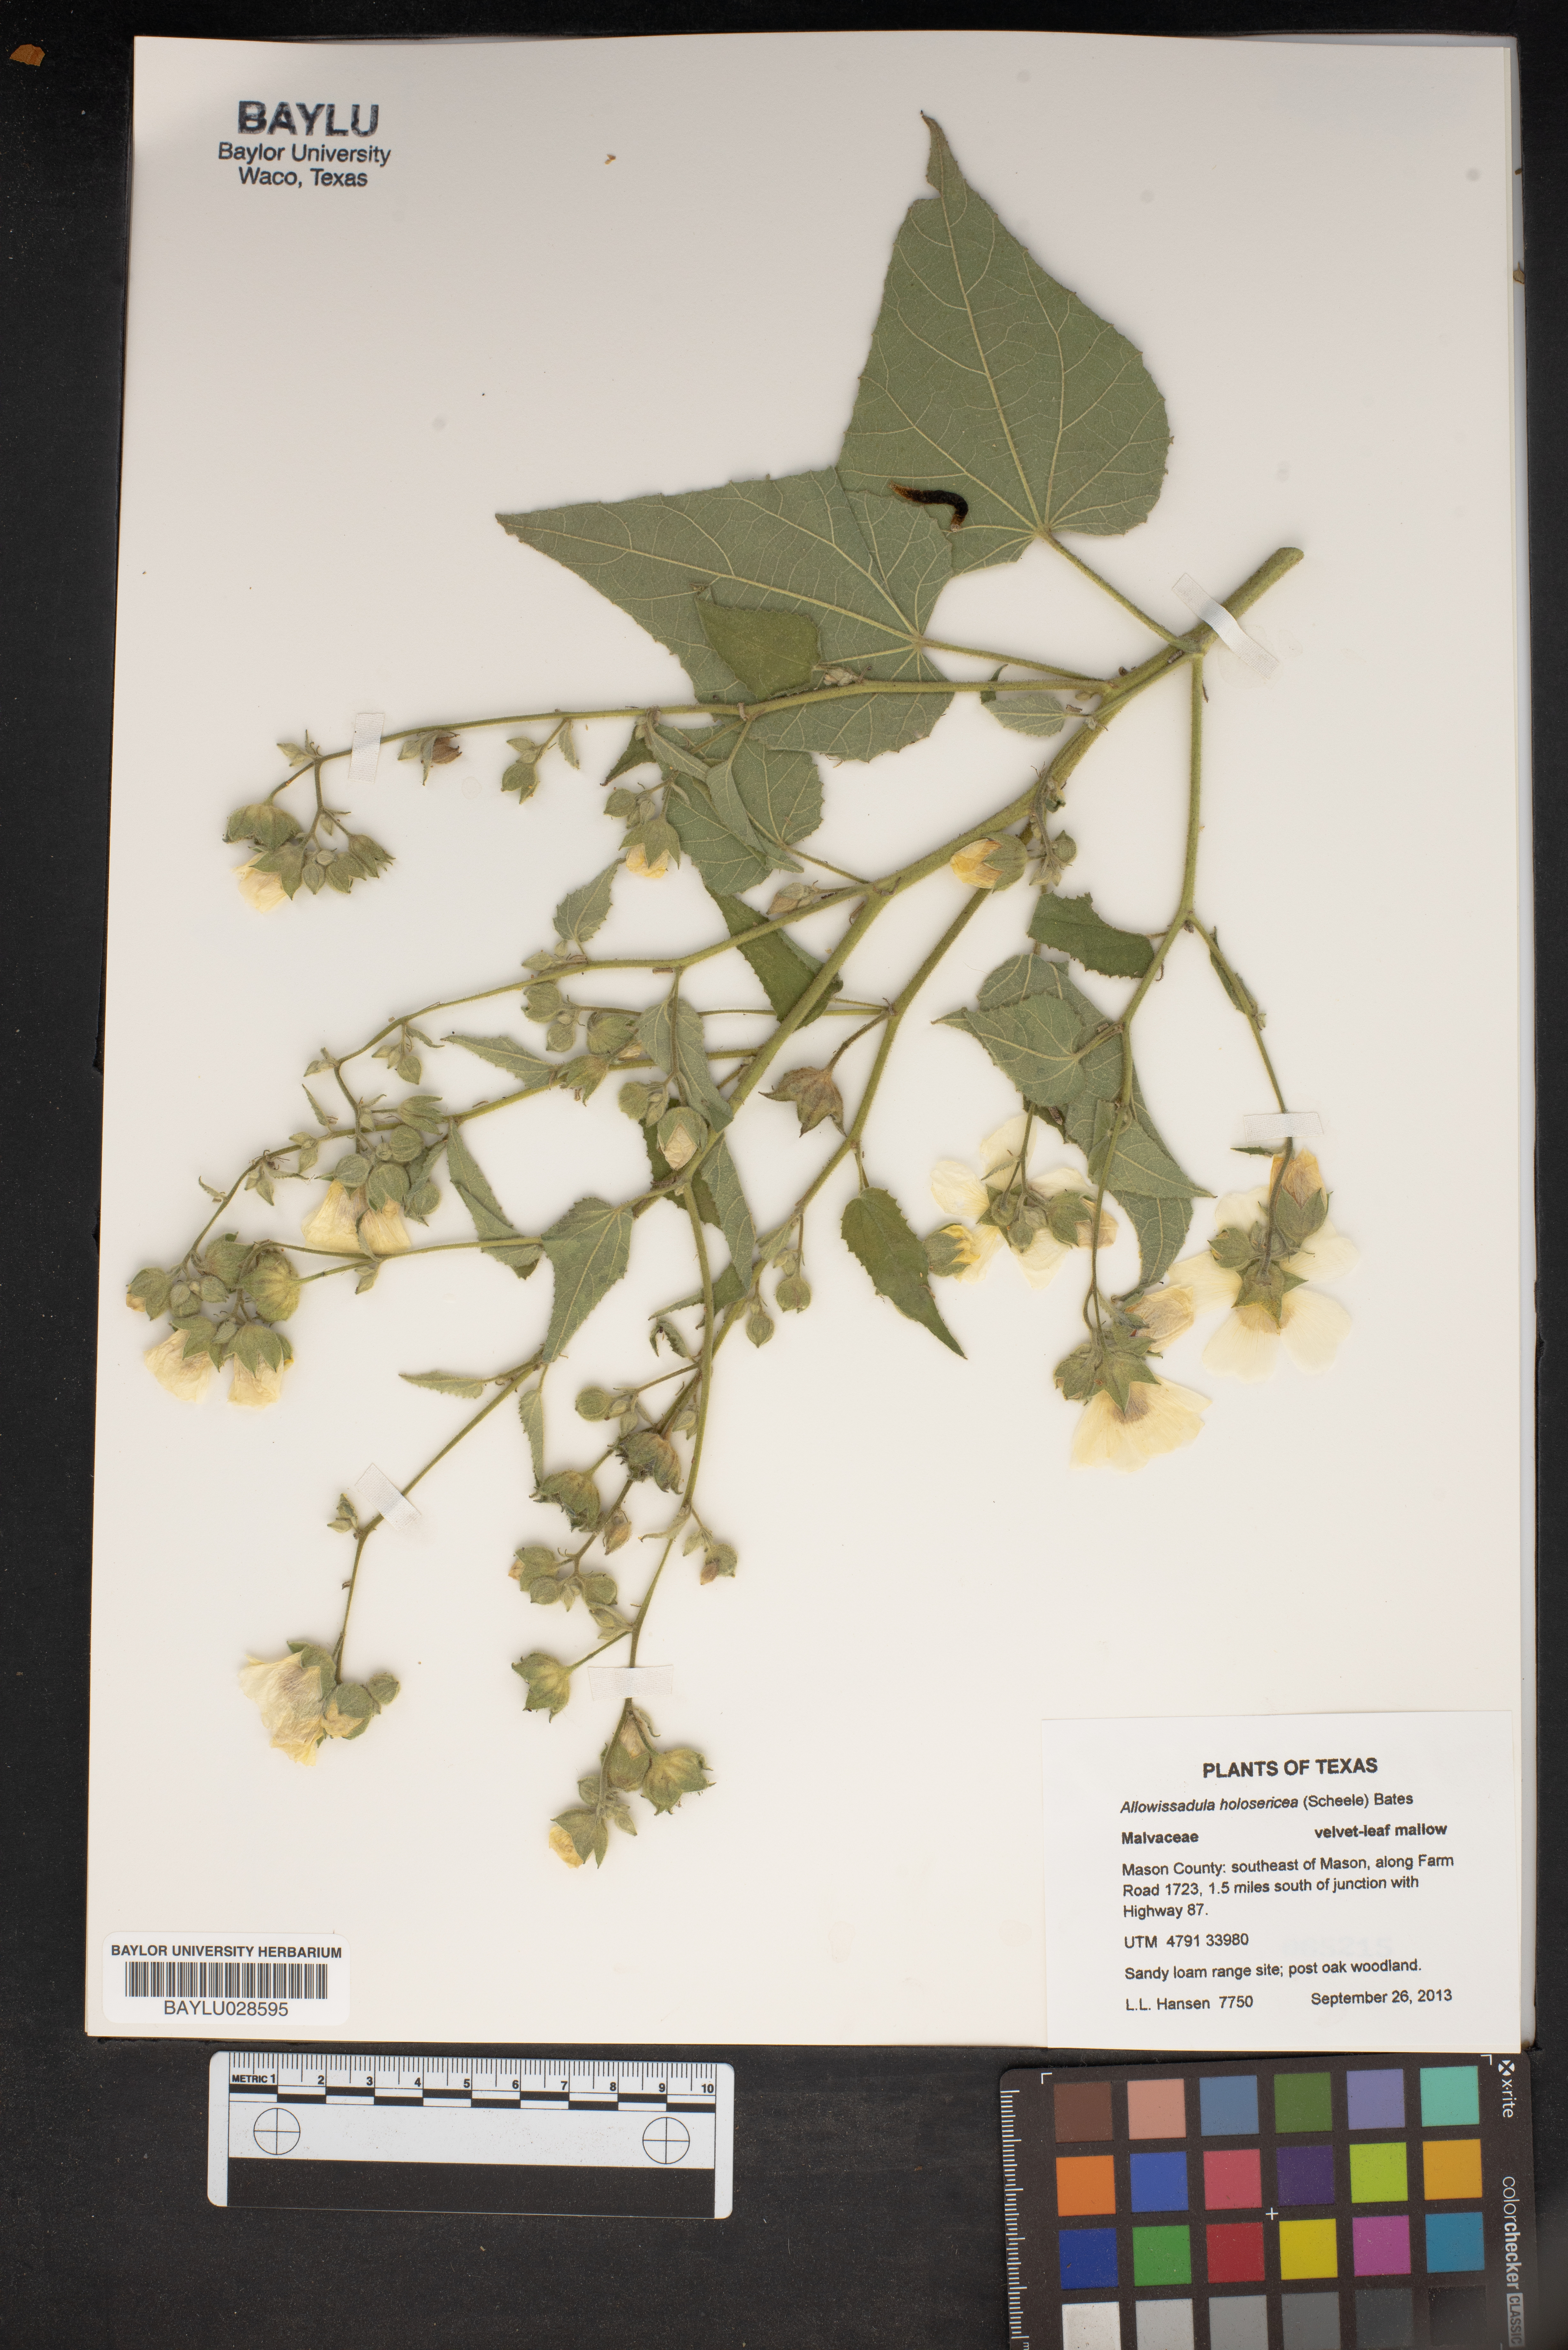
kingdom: Plantae
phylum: Tracheophyta
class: Magnoliopsida
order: Malvales
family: Malvaceae
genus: Allowissadula
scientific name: Allowissadula holosericea
